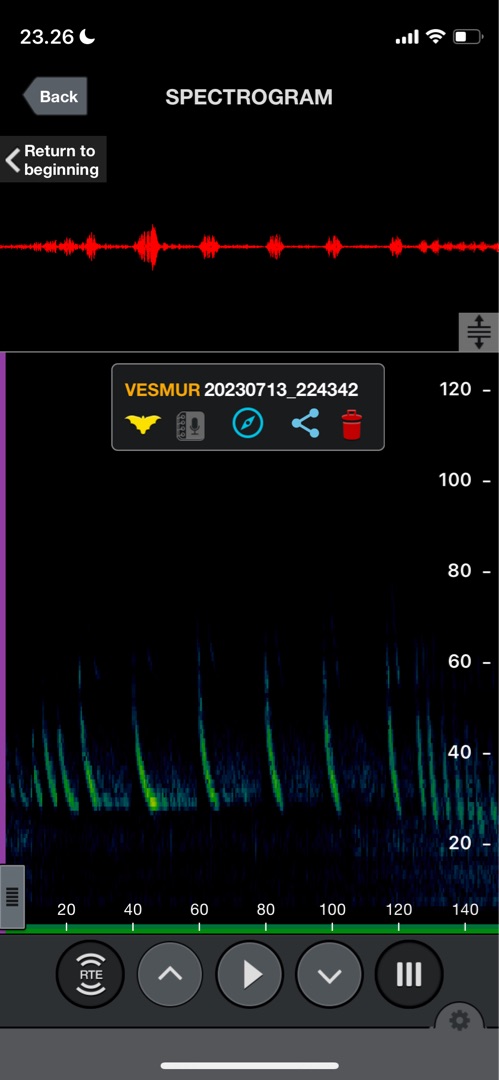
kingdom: Animalia
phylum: Chordata
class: Mammalia
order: Chiroptera
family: Vespertilionidae
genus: Vespertilio
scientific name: Vespertilio murinus
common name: Skimmelflagermus
